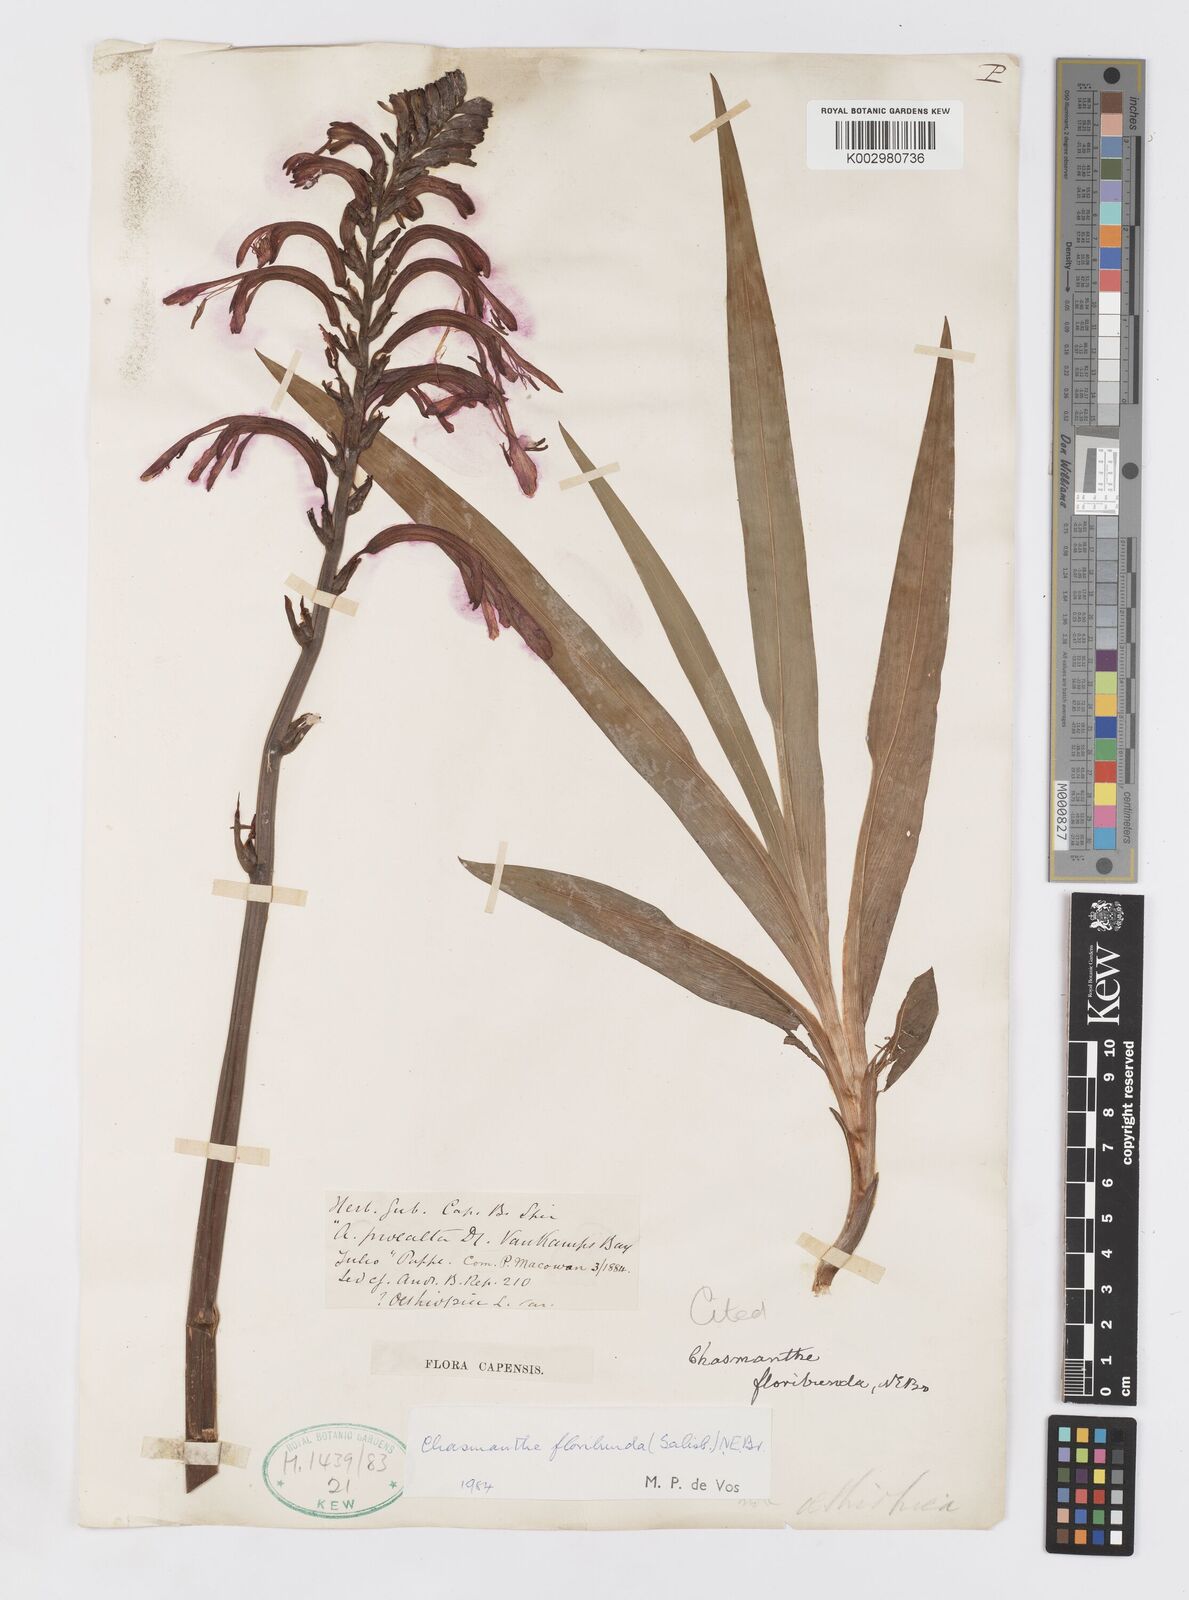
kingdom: Plantae
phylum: Tracheophyta
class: Liliopsida
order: Asparagales
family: Iridaceae
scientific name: Iridaceae
